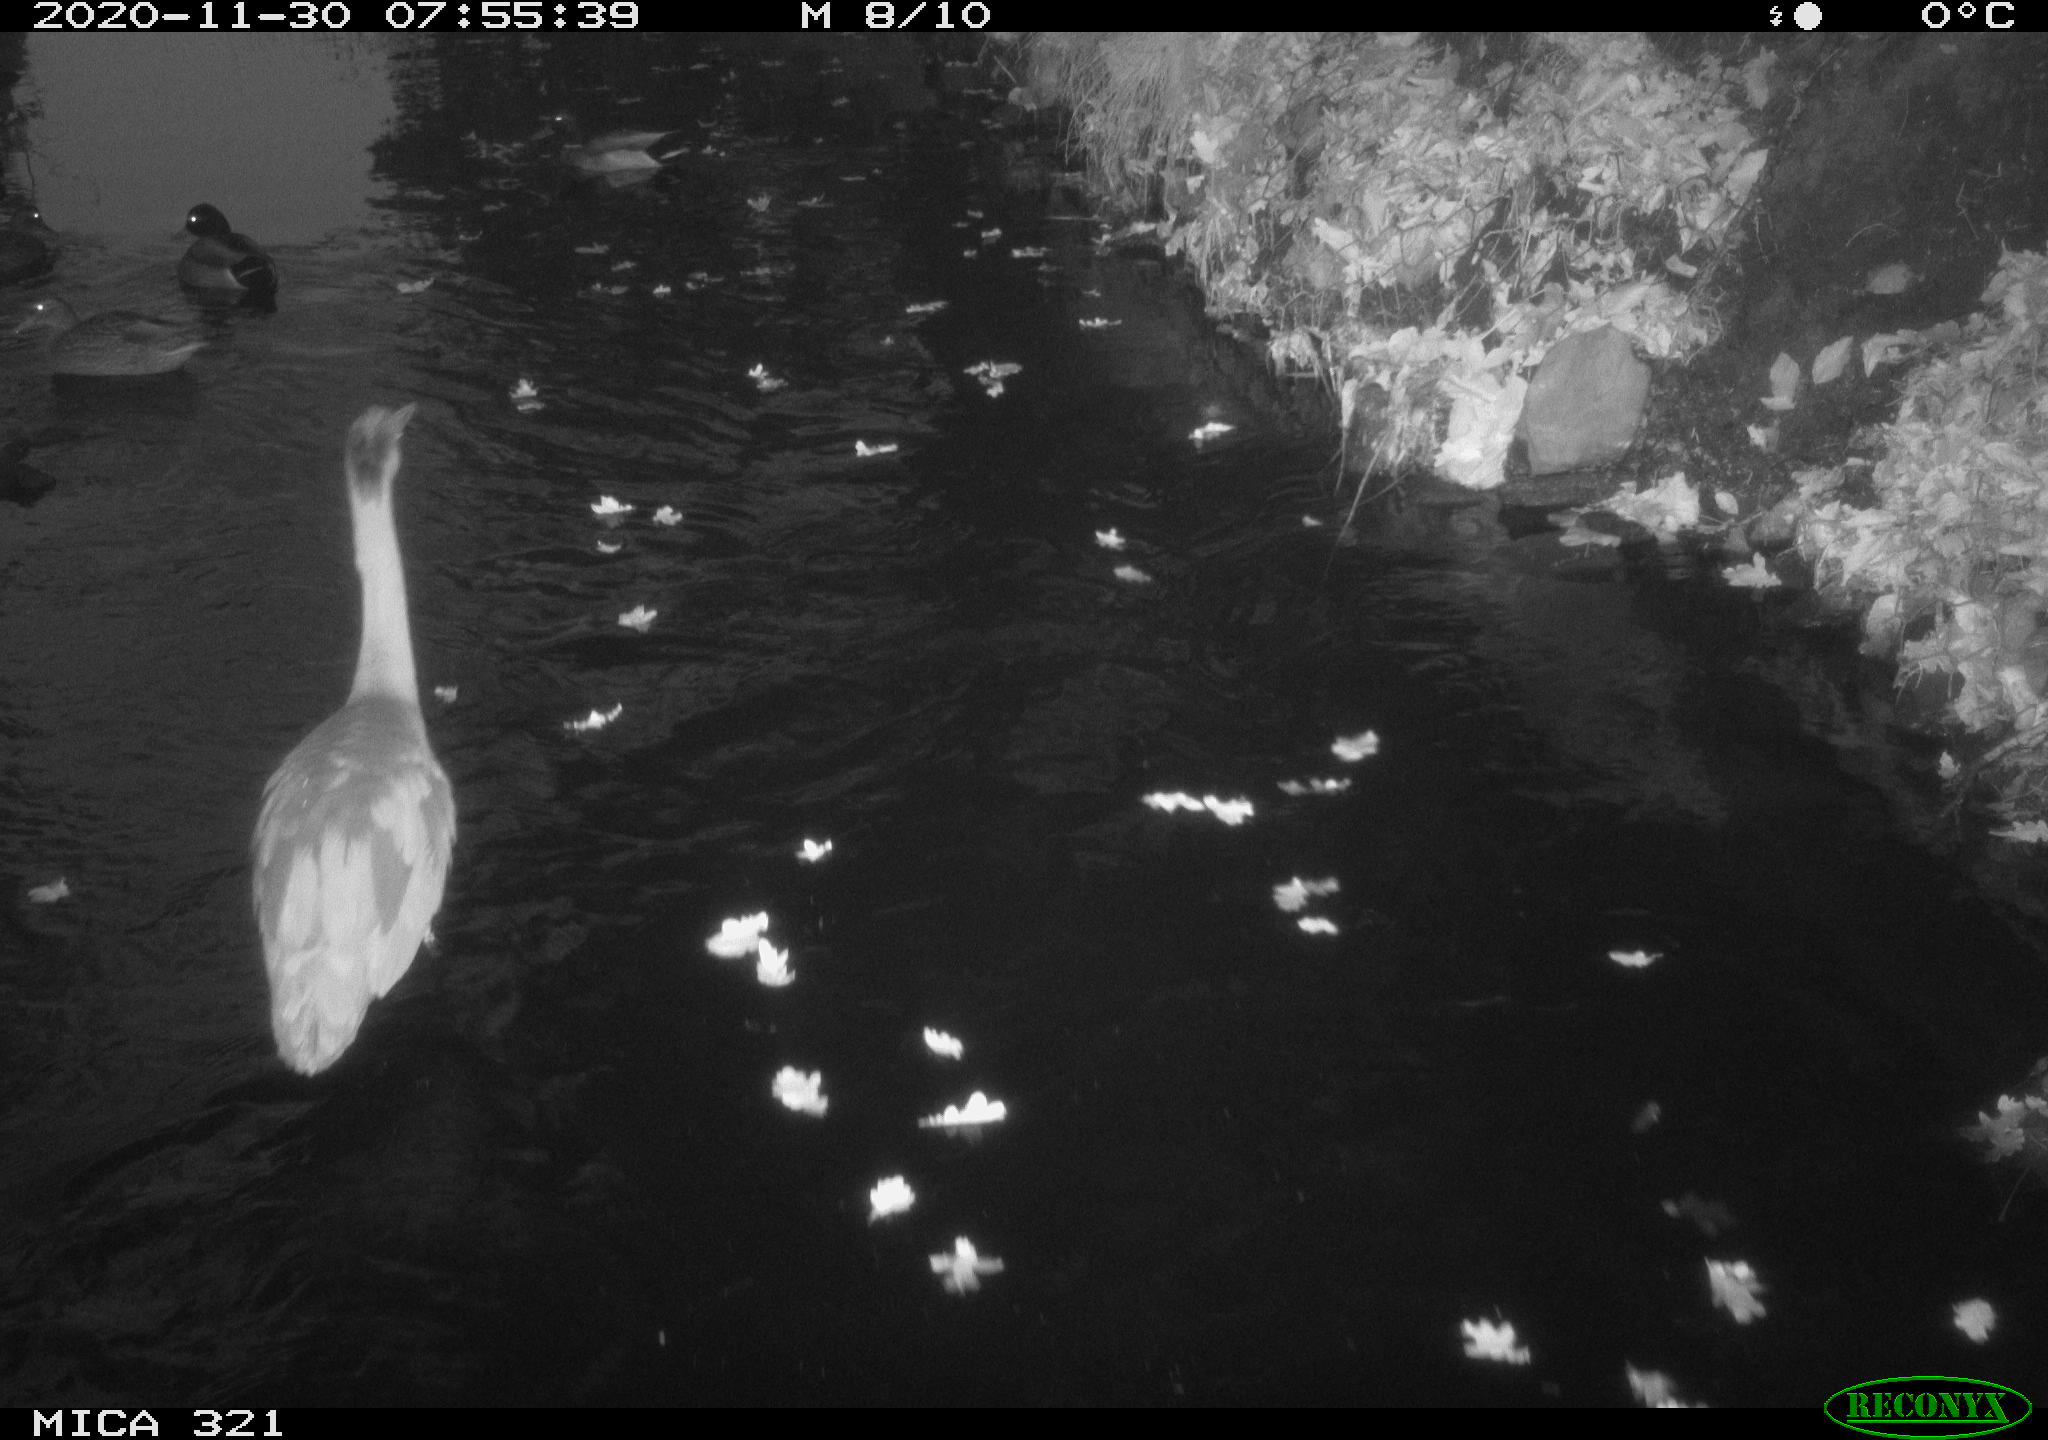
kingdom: Animalia
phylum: Chordata
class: Aves
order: Pelecaniformes
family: Ardeidae
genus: Ardea
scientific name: Ardea cinerea
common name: Grey heron
